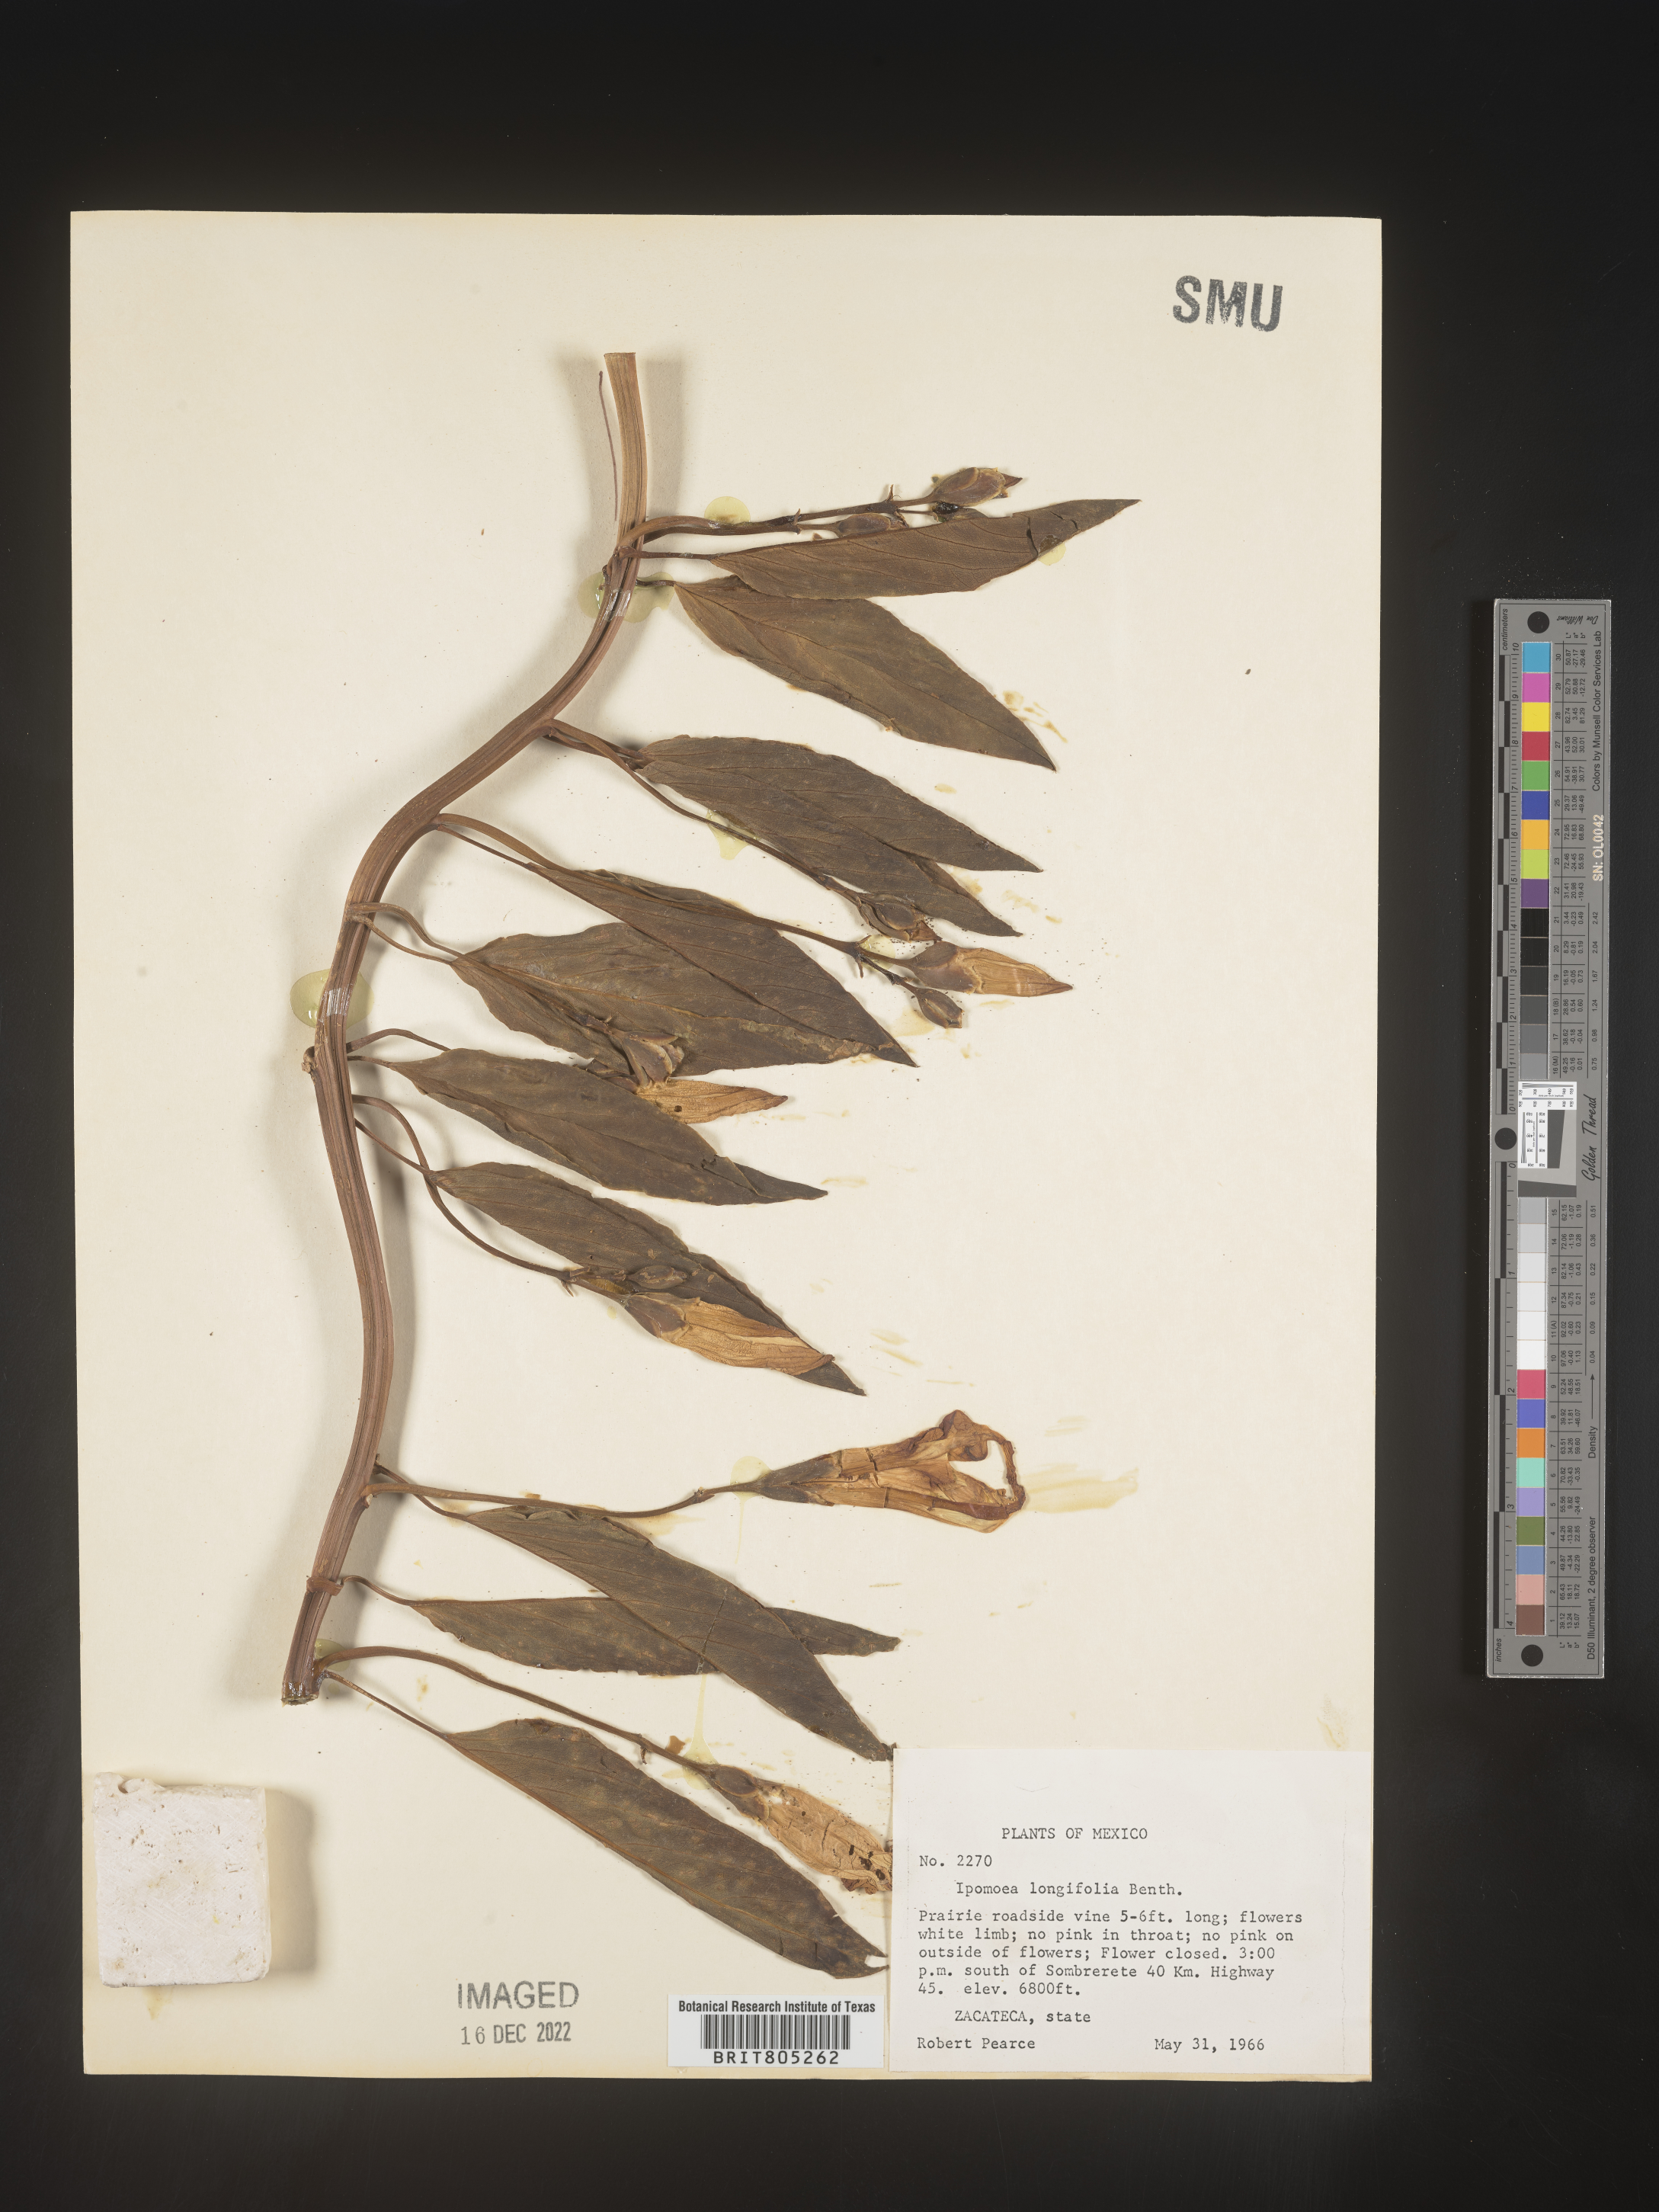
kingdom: Plantae
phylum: Tracheophyta
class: Magnoliopsida
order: Solanales
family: Convolvulaceae
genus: Ipomoea
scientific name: Ipomoea
